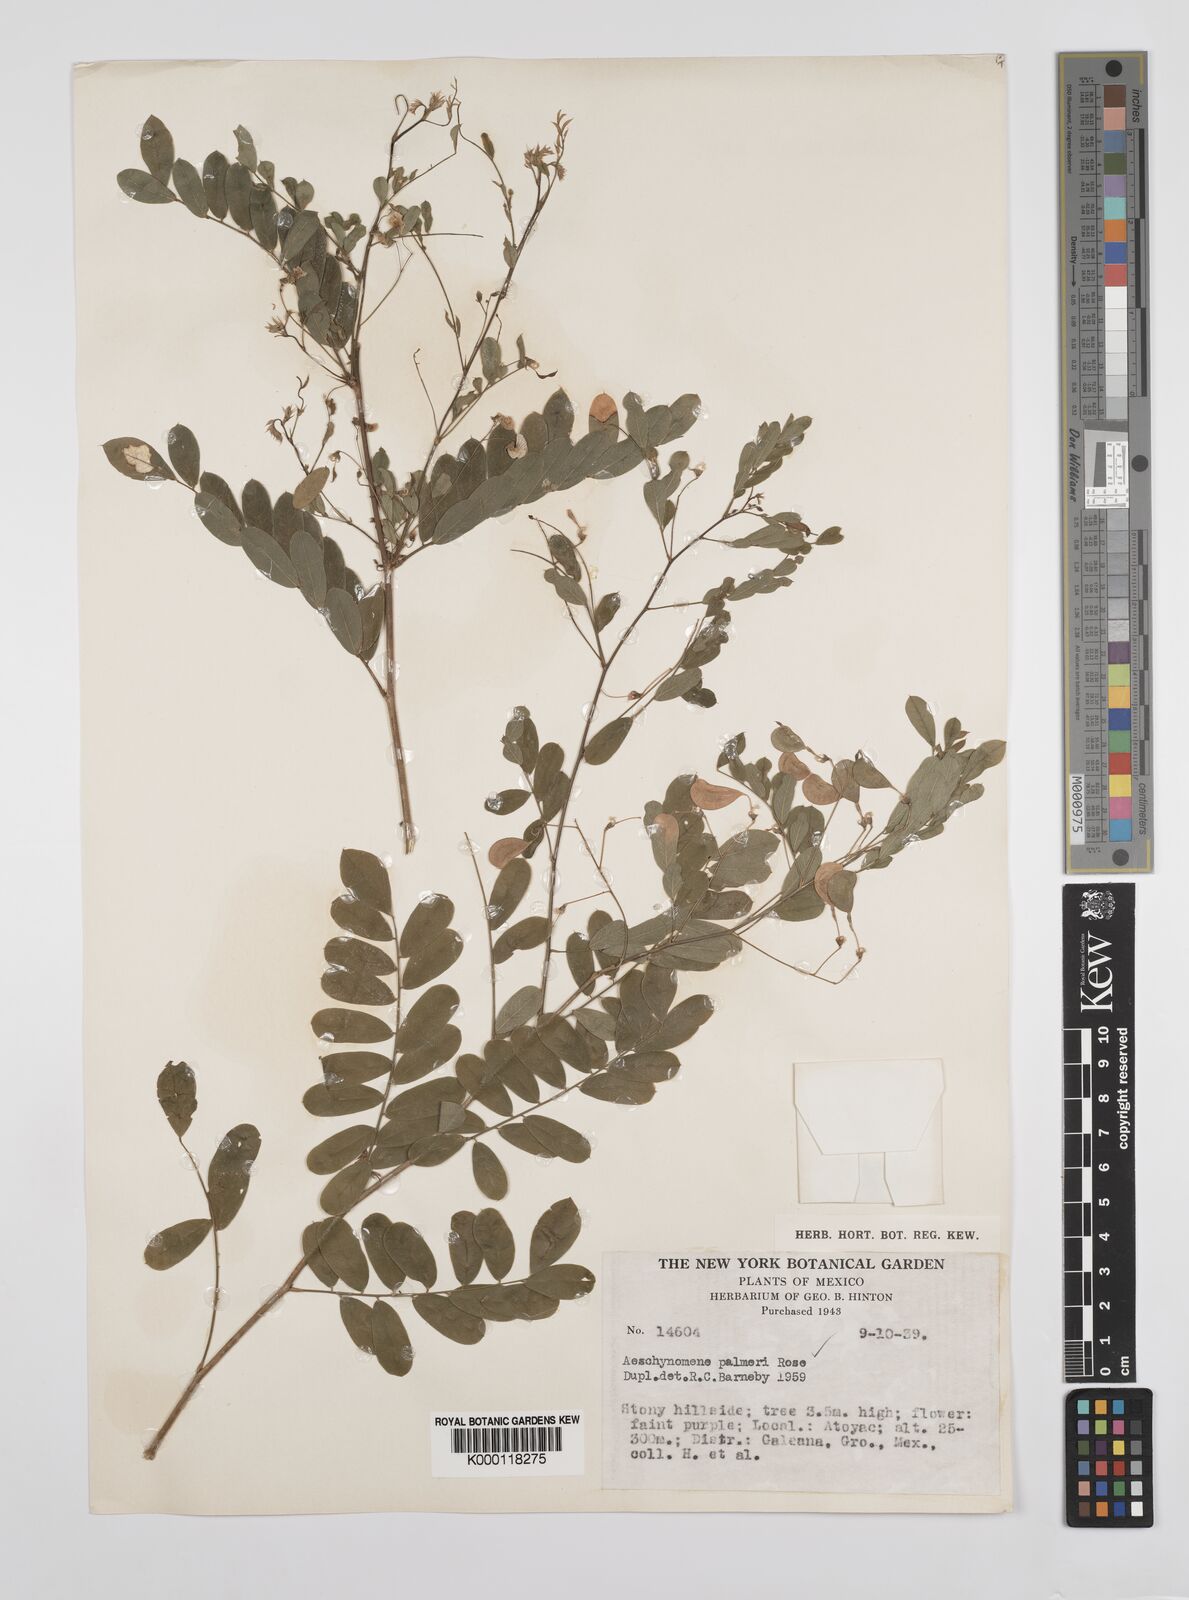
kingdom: Plantae
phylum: Tracheophyta
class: Magnoliopsida
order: Fabales
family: Fabaceae
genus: Ctenodon
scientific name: Ctenodon palmeri
